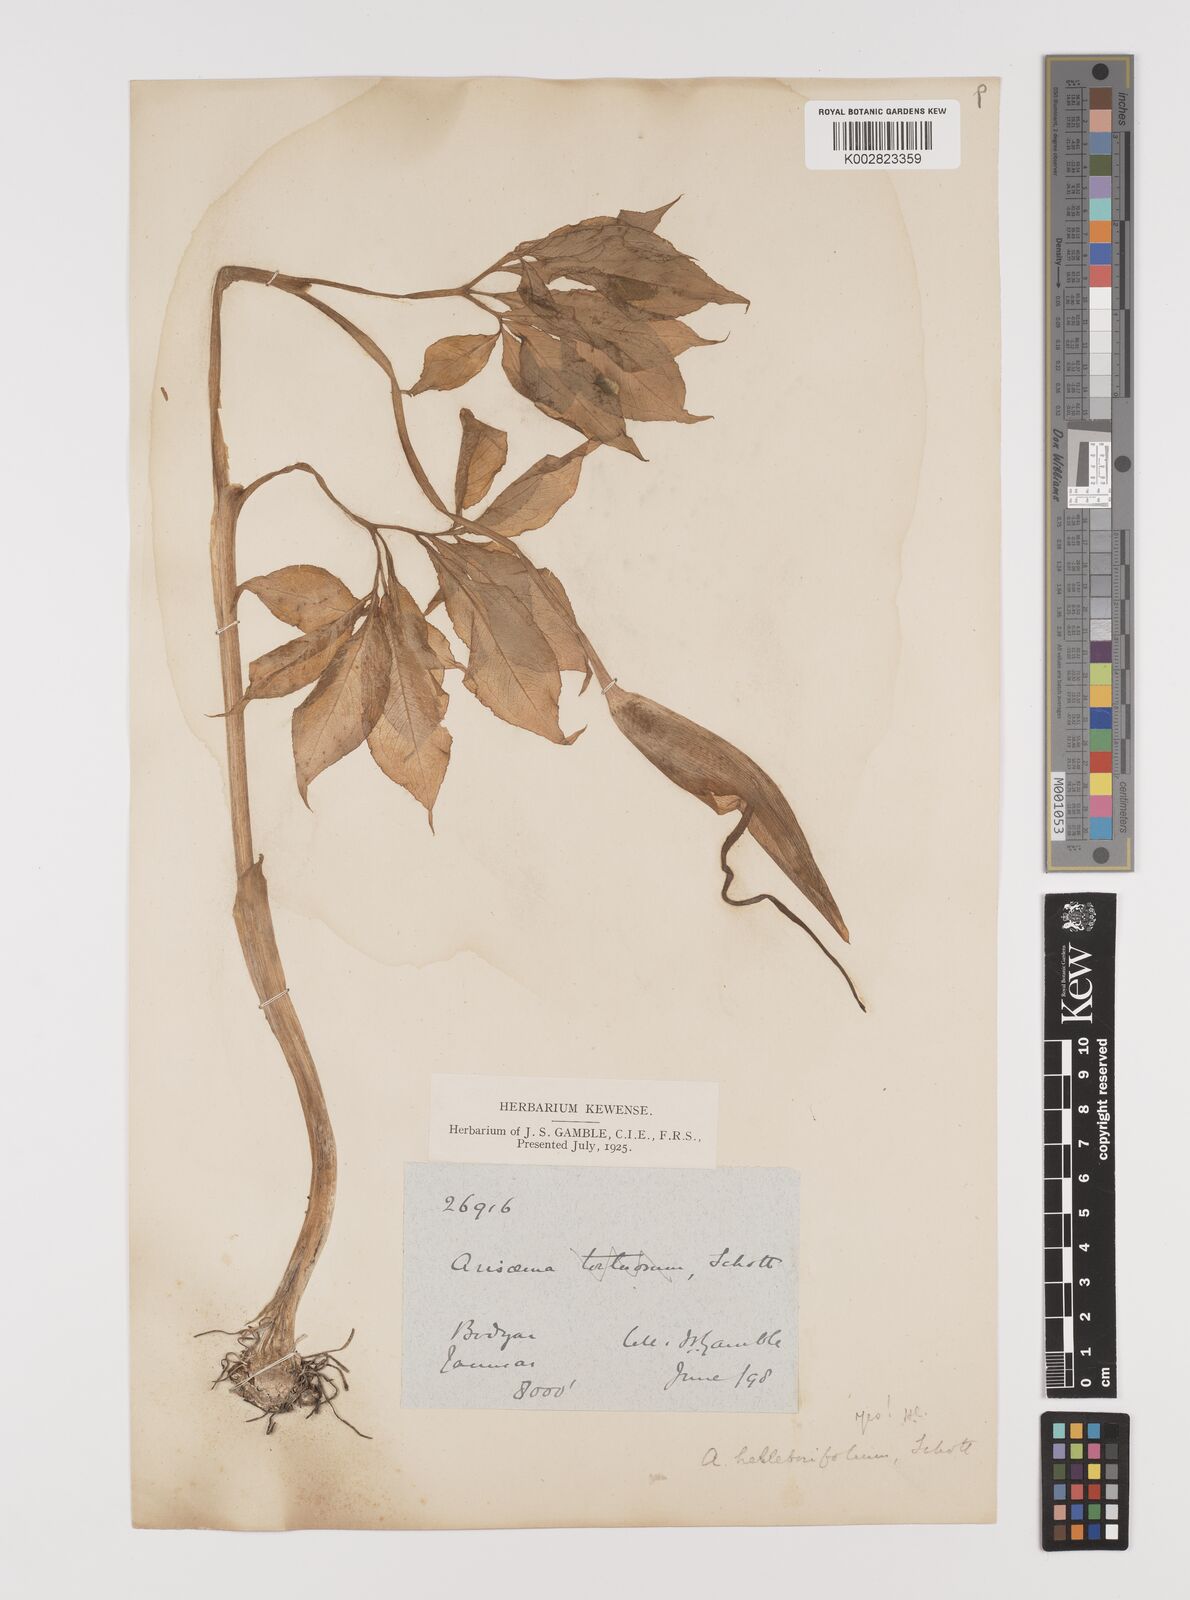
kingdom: Plantae
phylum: Tracheophyta
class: Liliopsida
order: Alismatales
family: Araceae
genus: Arisaema
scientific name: Arisaema tortuosum
